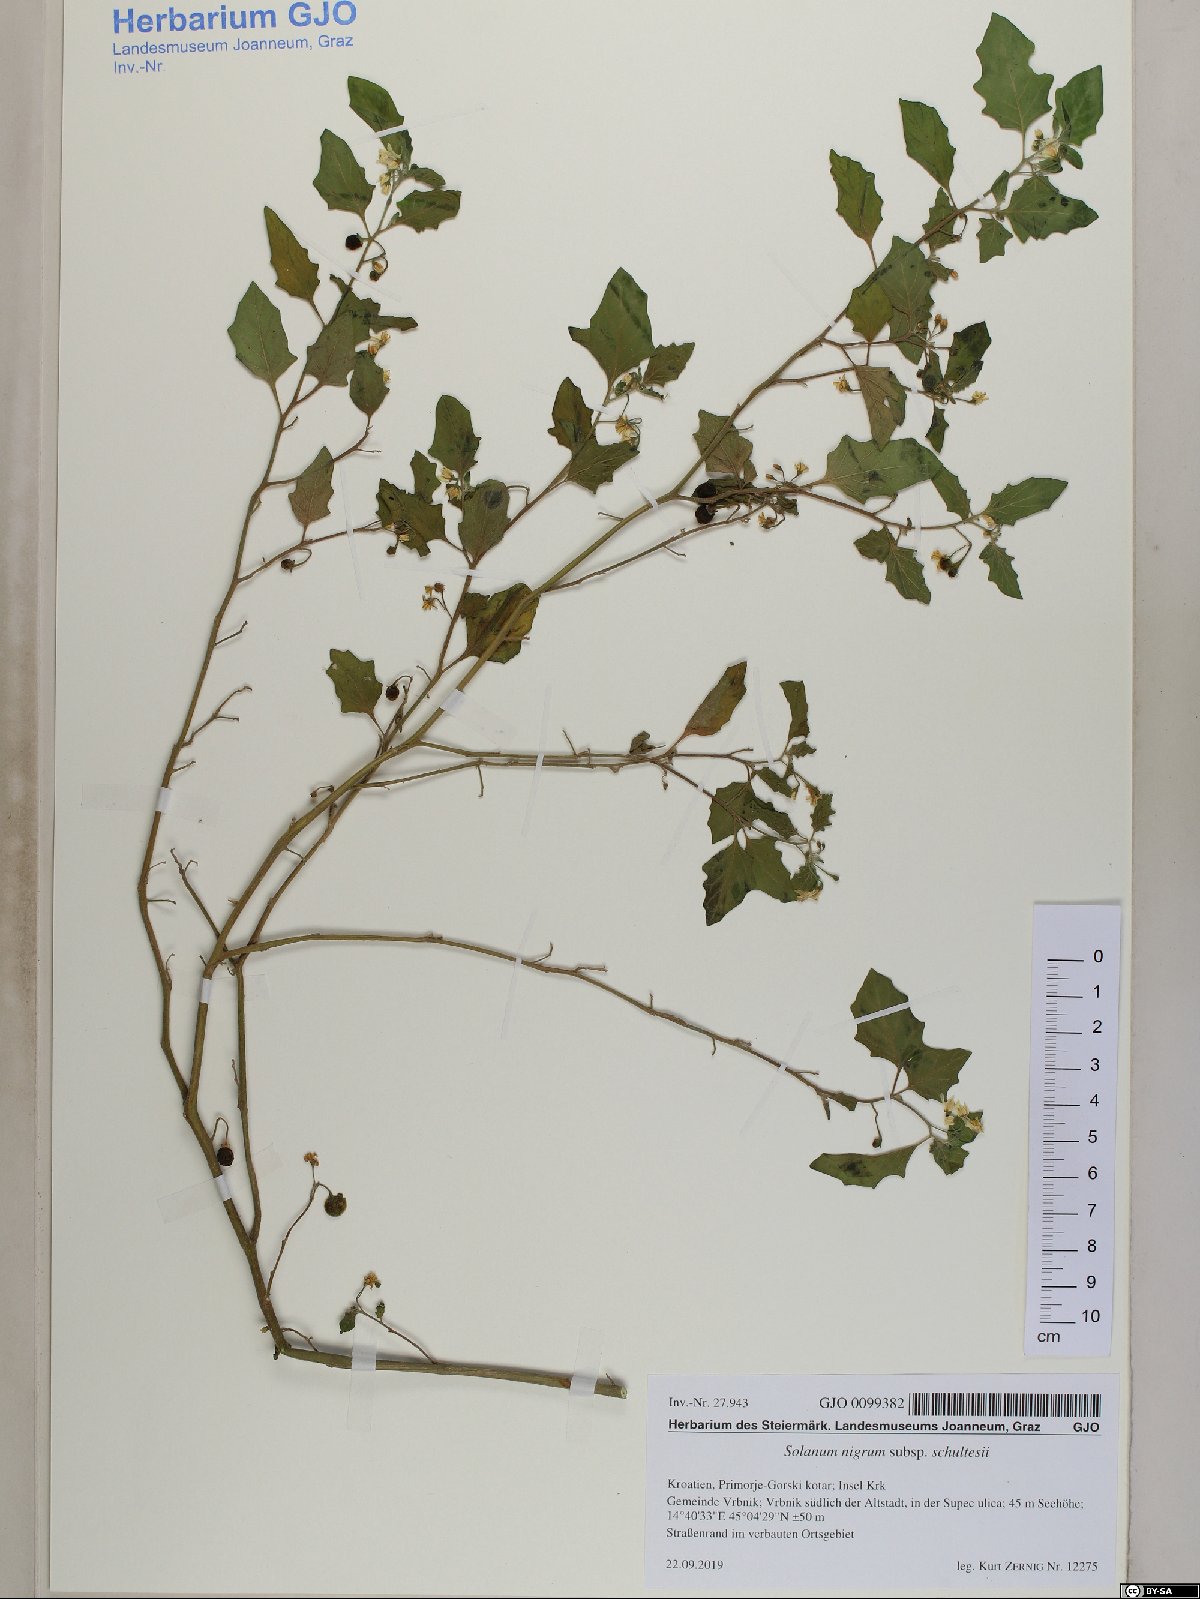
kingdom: Plantae
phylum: Tracheophyta
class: Magnoliopsida
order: Solanales
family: Solanaceae
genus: Solanum
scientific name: Solanum decipiens
